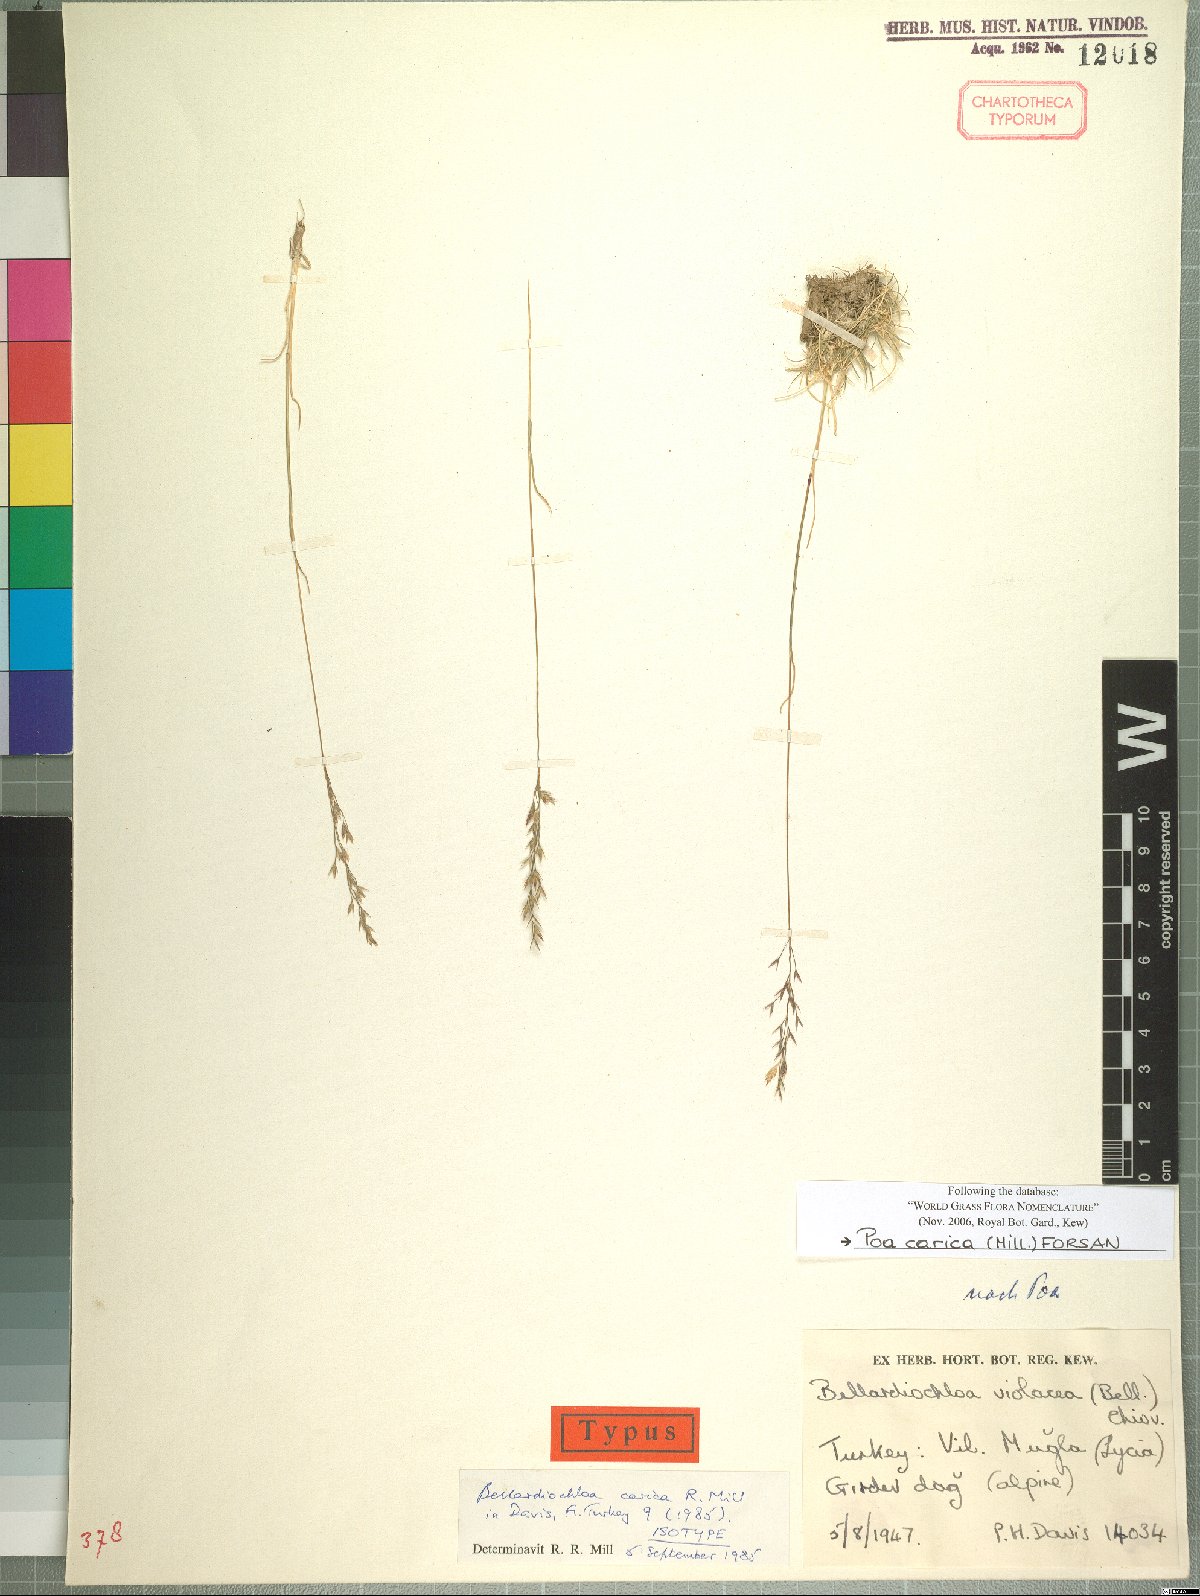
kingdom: Plantae
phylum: Tracheophyta
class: Liliopsida
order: Poales
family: Poaceae
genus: Bellardiochloa
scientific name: Bellardiochloa carica
